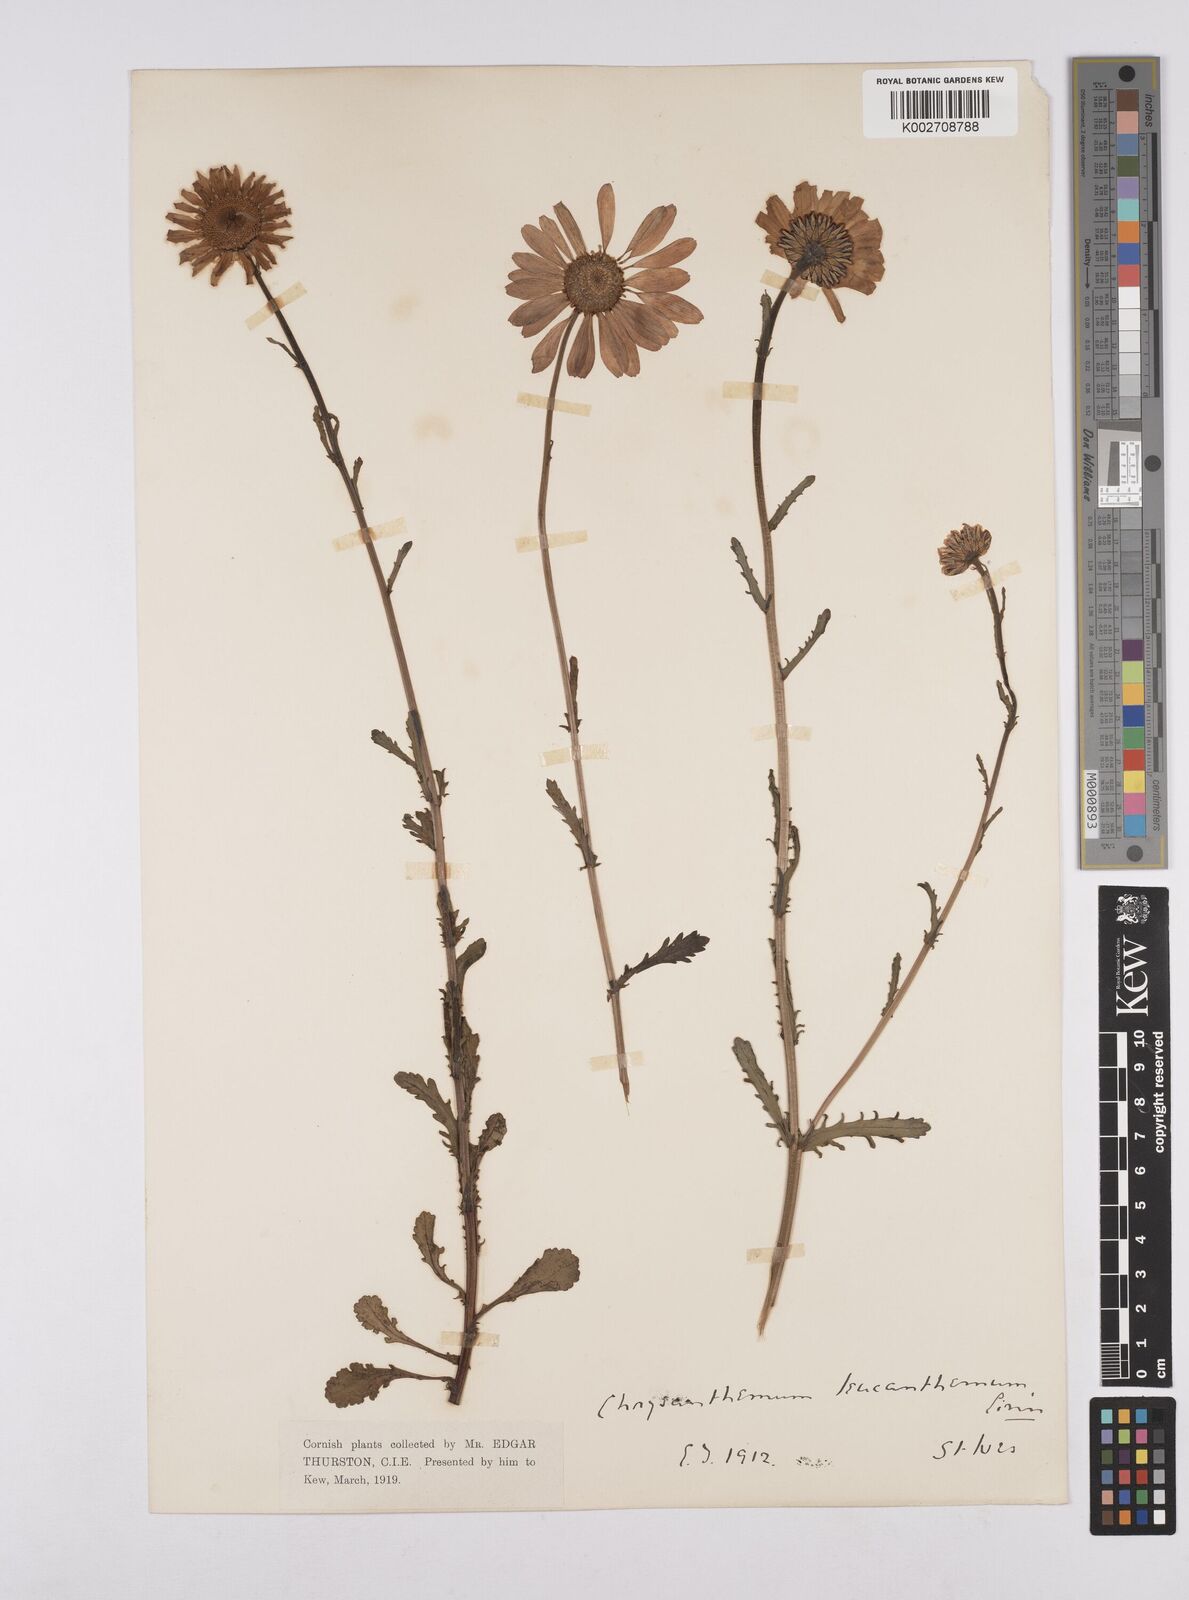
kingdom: Plantae
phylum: Tracheophyta
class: Magnoliopsida
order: Asterales
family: Asteraceae
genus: Leucanthemum
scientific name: Leucanthemum vulgare
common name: Oxeye daisy
